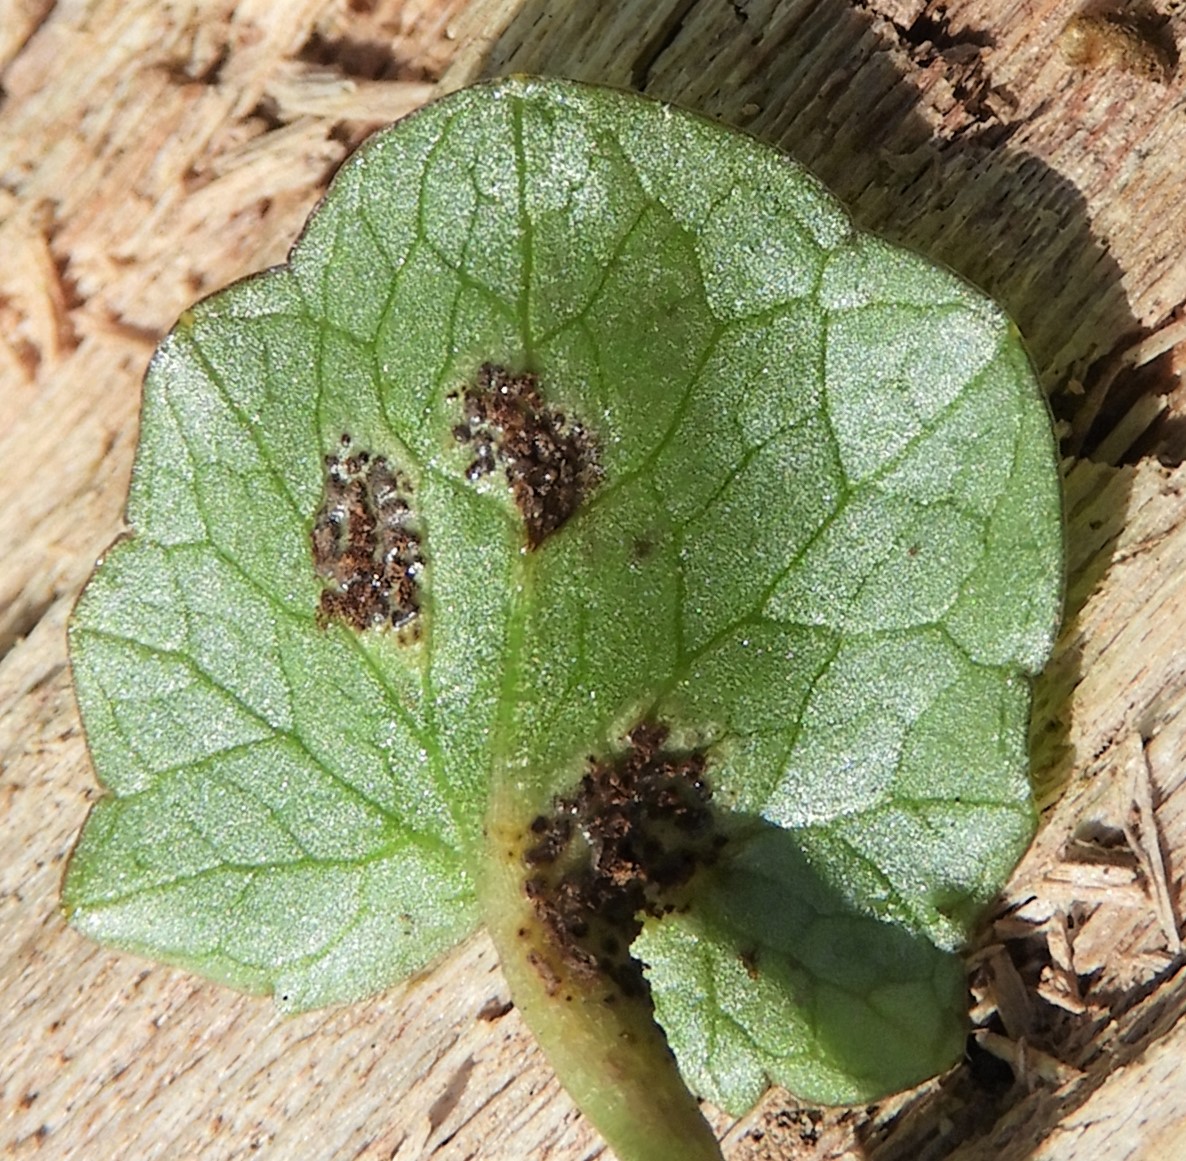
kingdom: Fungi
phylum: Basidiomycota
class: Pucciniomycetes
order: Pucciniales
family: Pucciniaceae
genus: Uromyces
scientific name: Uromyces ficariae
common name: vorterod-encellerust
